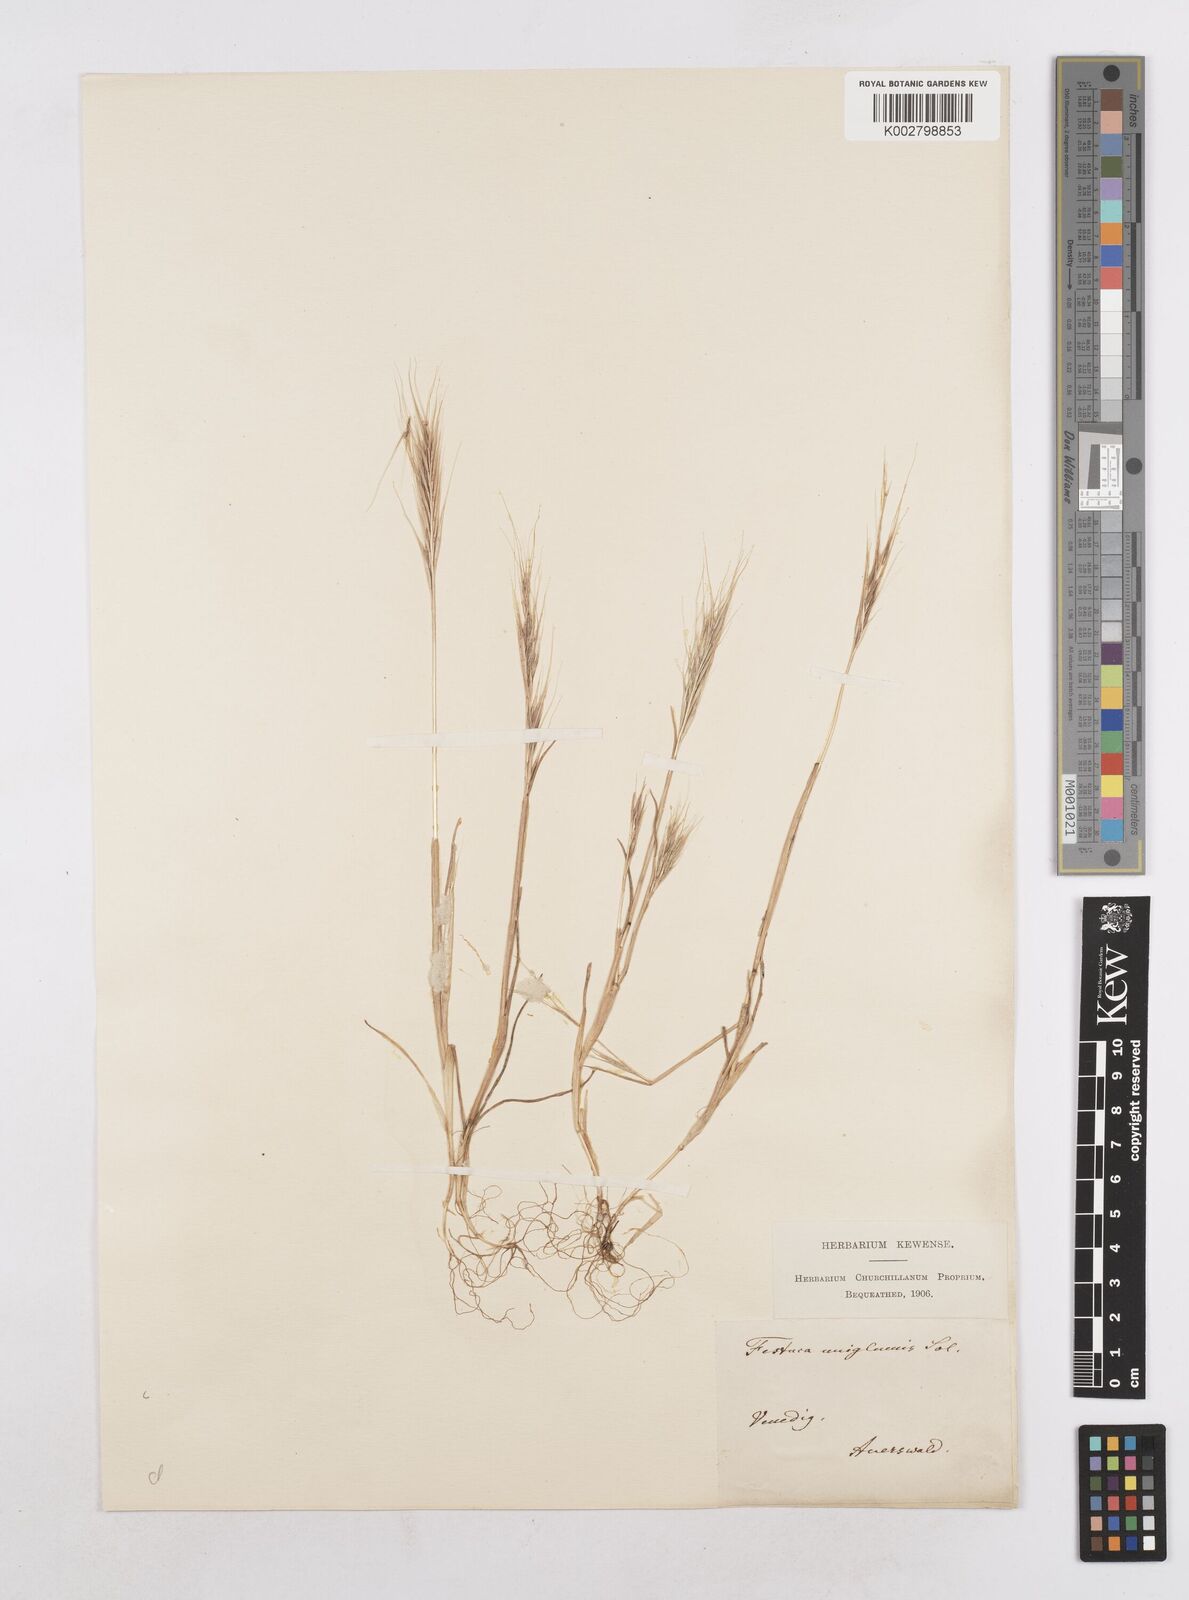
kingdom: Plantae
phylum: Tracheophyta
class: Liliopsida
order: Poales
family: Poaceae
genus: Festuca
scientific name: Festuca membranacea
